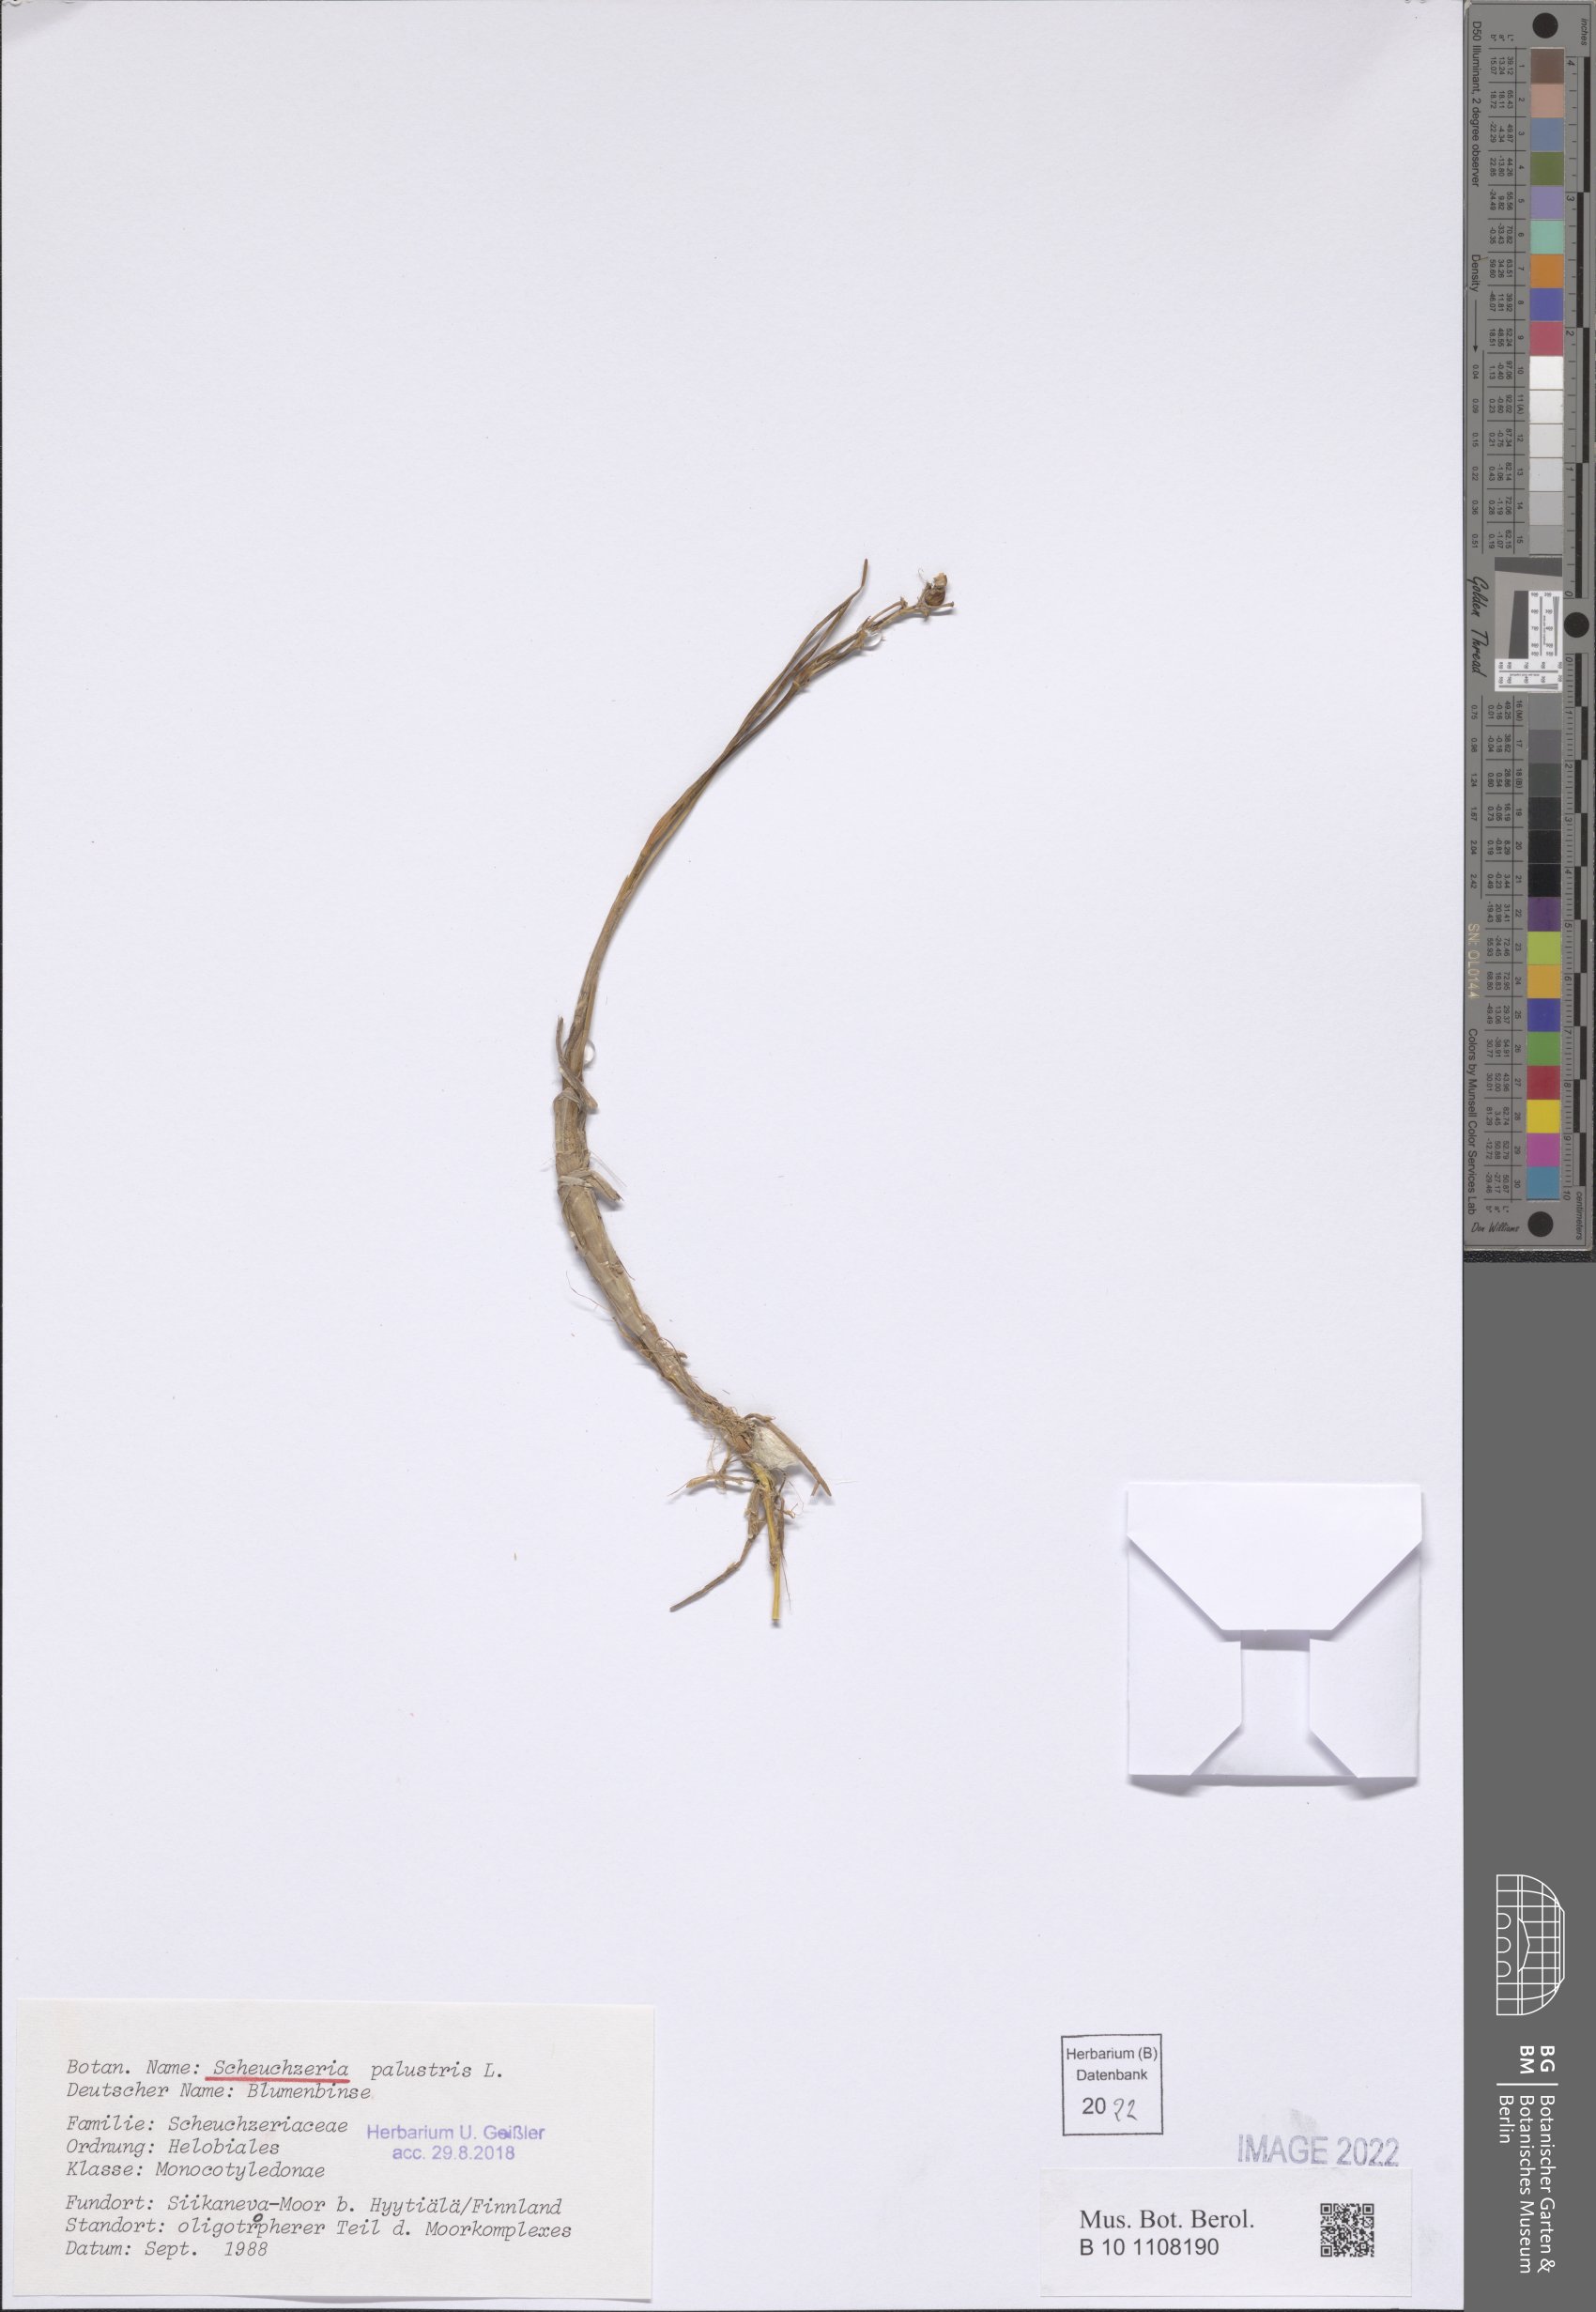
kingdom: Plantae
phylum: Tracheophyta
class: Liliopsida
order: Alismatales
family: Scheuchzeriaceae
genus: Scheuchzeria
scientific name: Scheuchzeria palustris
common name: Rannoch-rush
